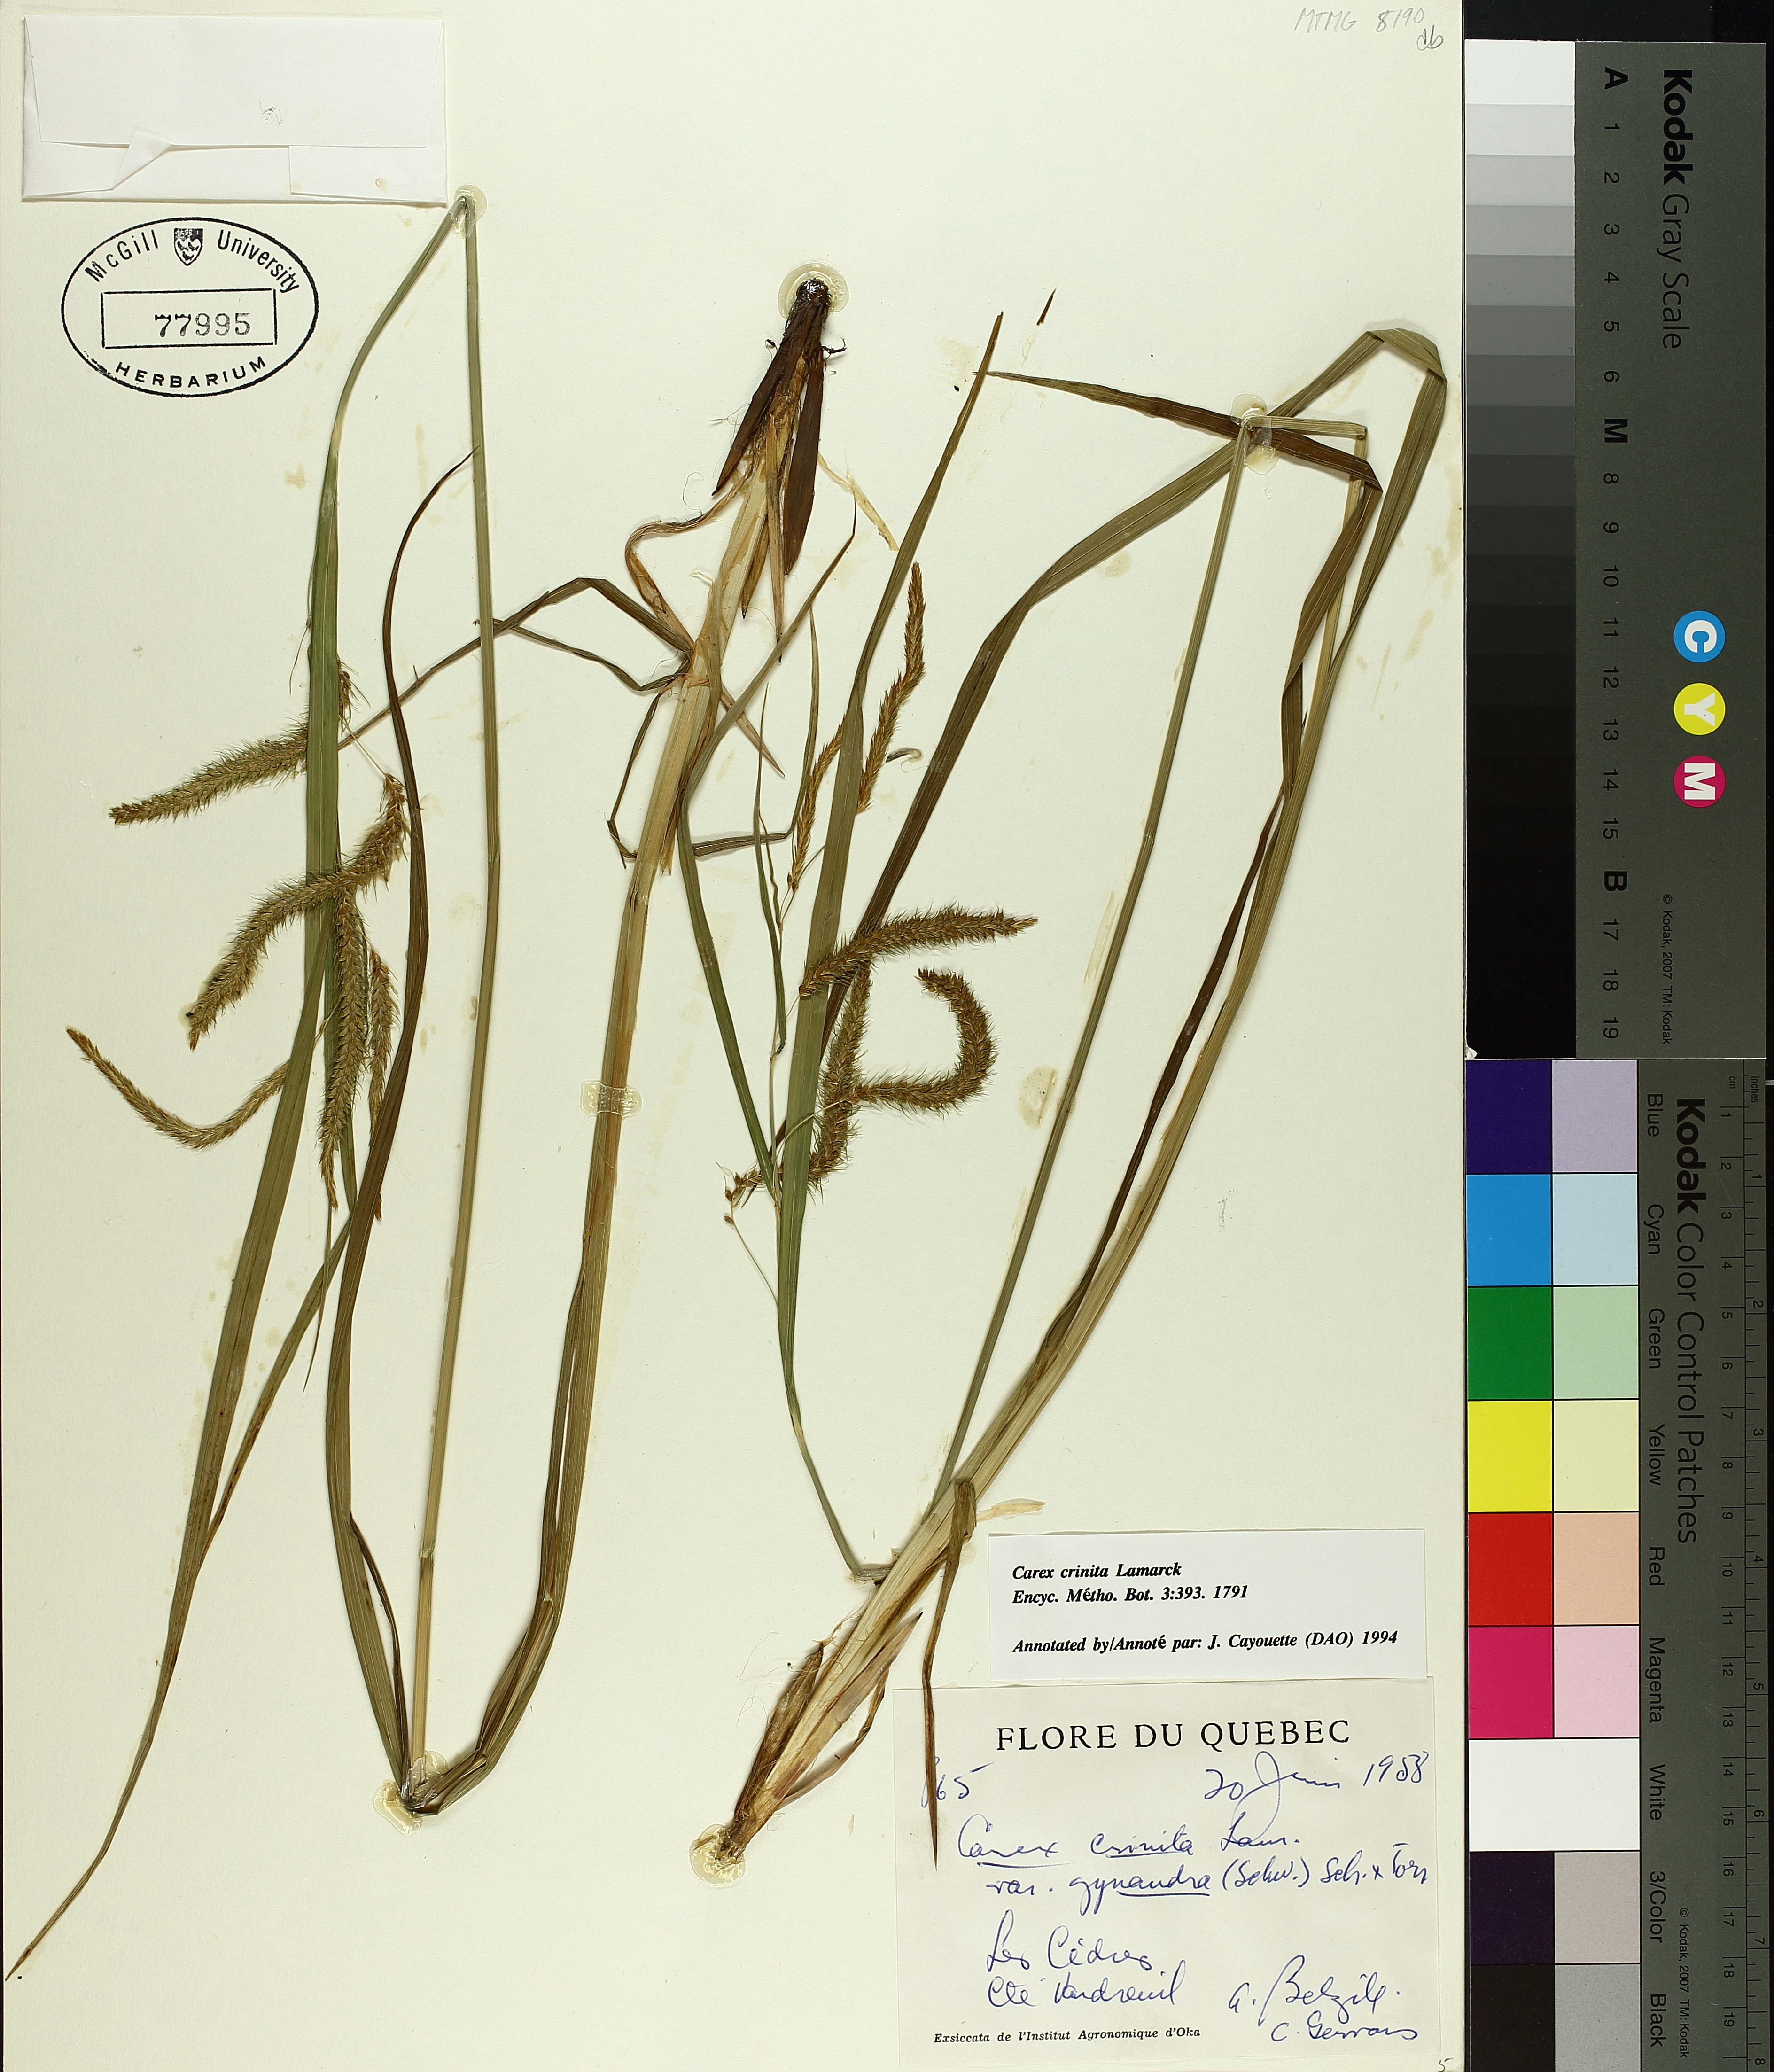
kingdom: Plantae
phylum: Tracheophyta
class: Liliopsida
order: Poales
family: Cyperaceae
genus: Carex
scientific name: Carex gynandra
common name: Nodding sedge
